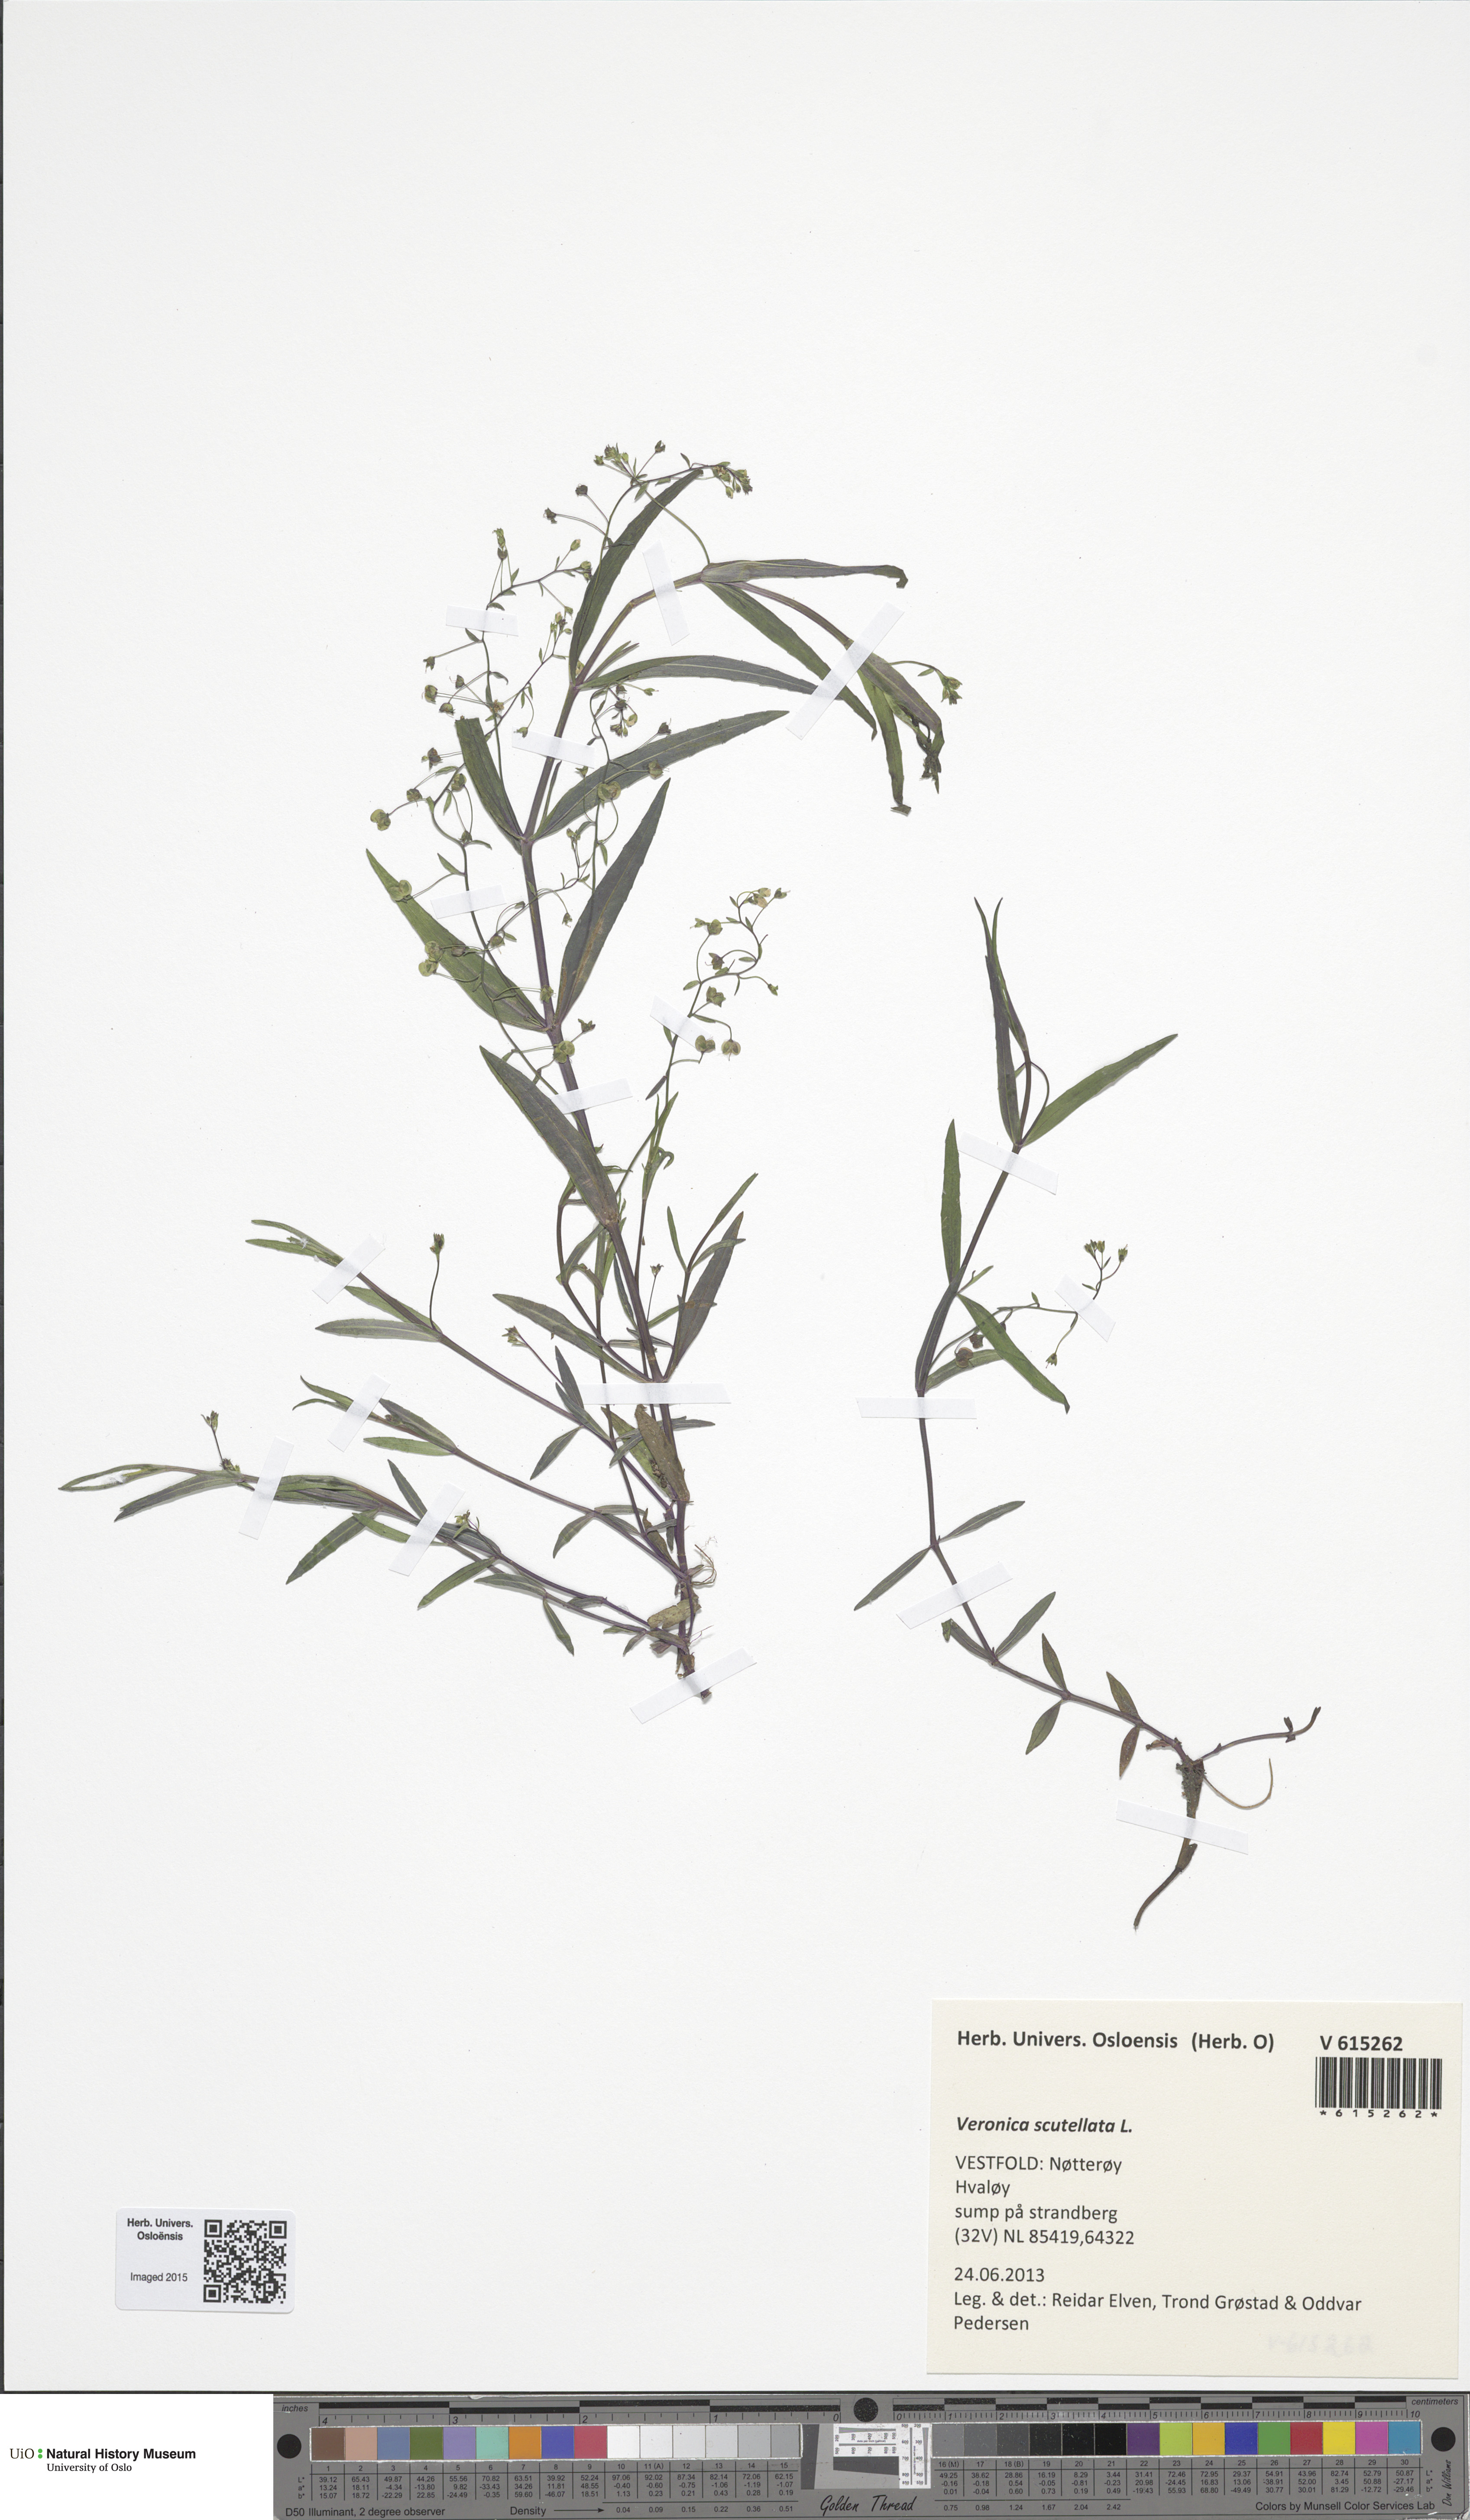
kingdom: Plantae
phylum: Tracheophyta
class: Magnoliopsida
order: Lamiales
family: Plantaginaceae
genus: Veronica
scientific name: Veronica scutellata
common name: Marsh speedwell
